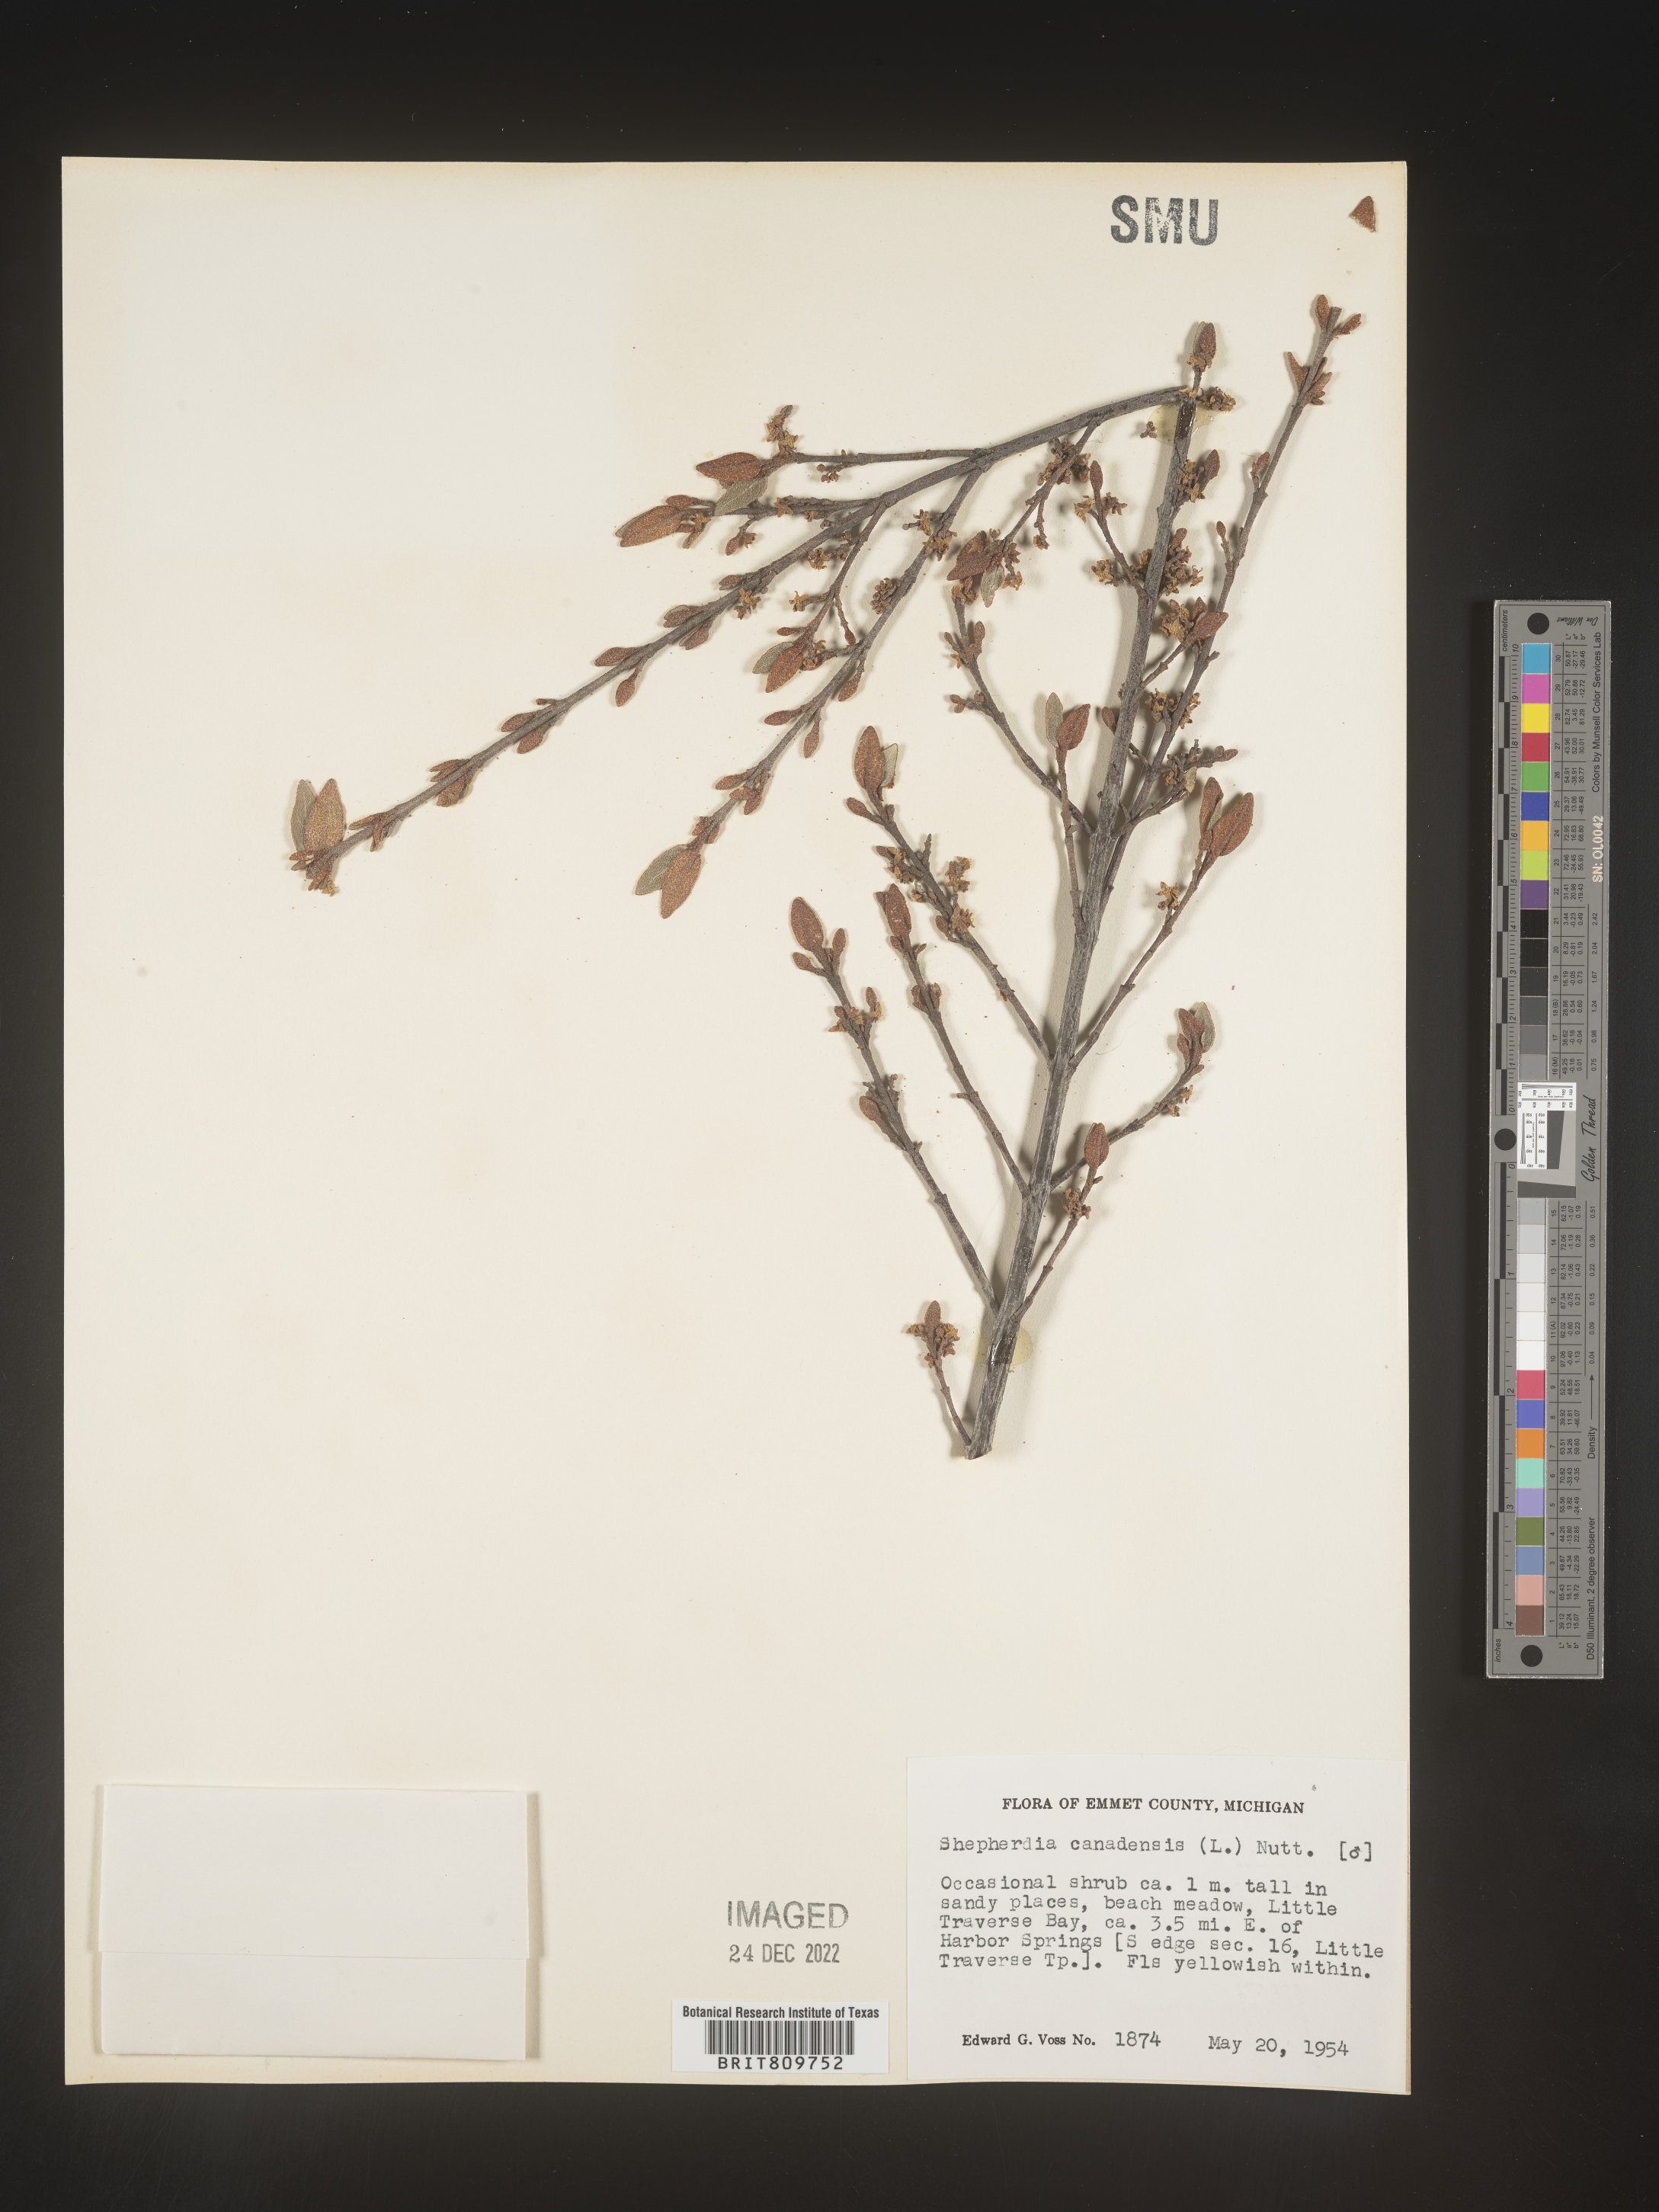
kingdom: Plantae
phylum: Tracheophyta
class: Magnoliopsida
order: Rosales
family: Elaeagnaceae
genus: Shepherdia
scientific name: Shepherdia canadensis
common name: Soapberry
